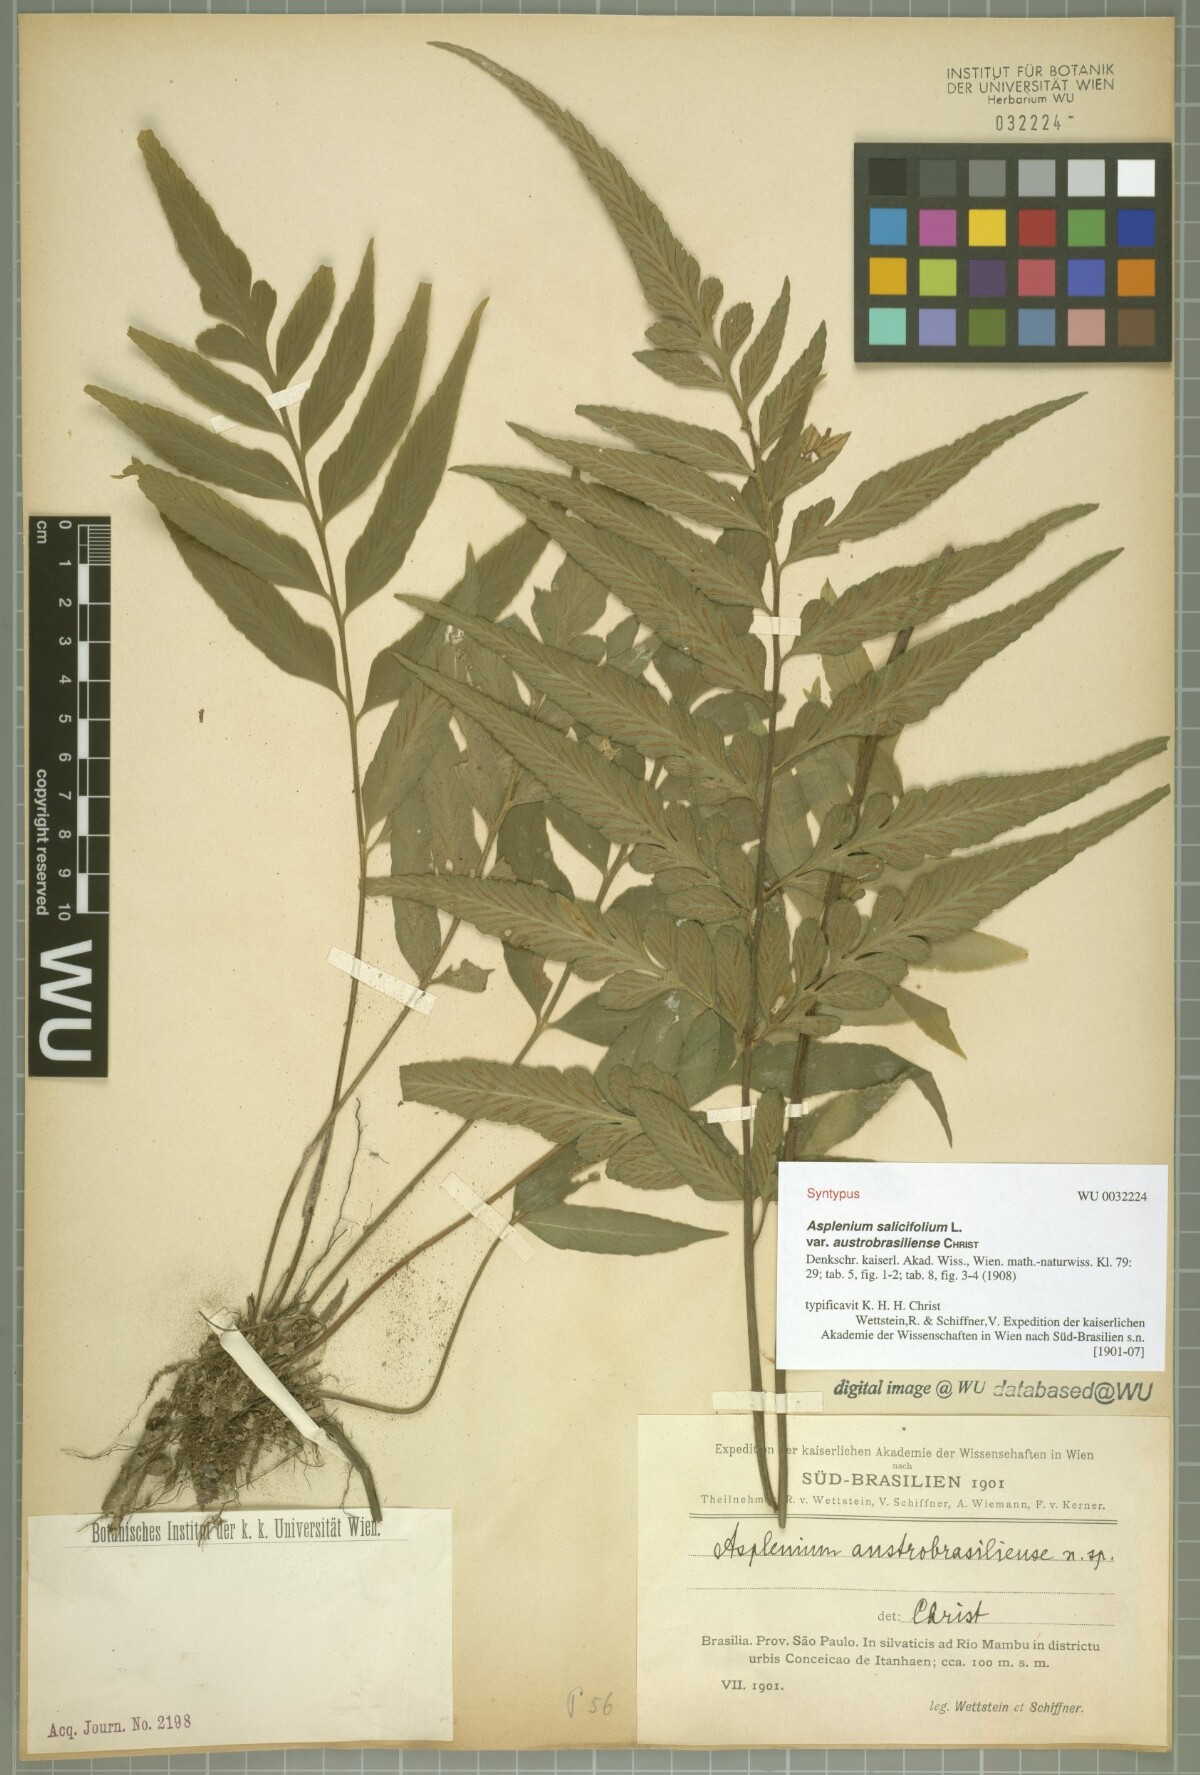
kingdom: Plantae
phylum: Tracheophyta
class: Polypodiopsida
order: Polypodiales
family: Aspleniaceae
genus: Asplenium
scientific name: Asplenium austrobrasiliense
